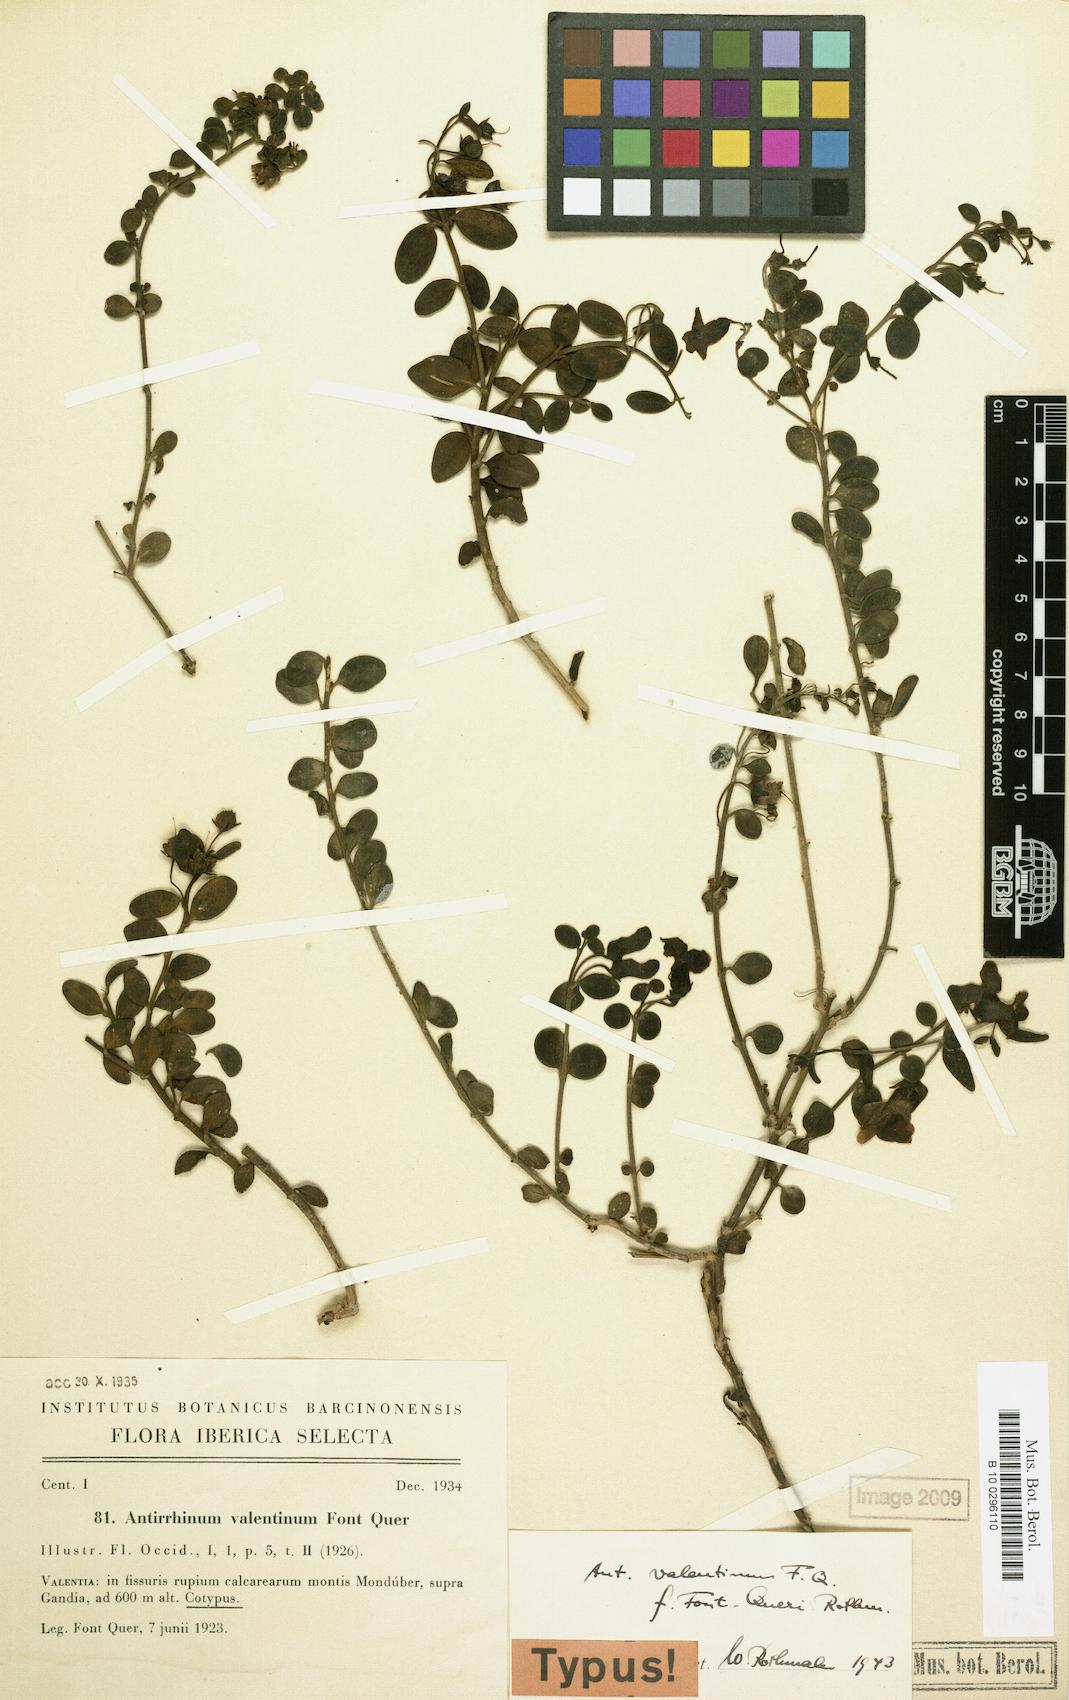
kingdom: Plantae
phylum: Tracheophyta
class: Magnoliopsida
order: Lamiales
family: Plantaginaceae
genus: Antirrhinum
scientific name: Antirrhinum valentinum
